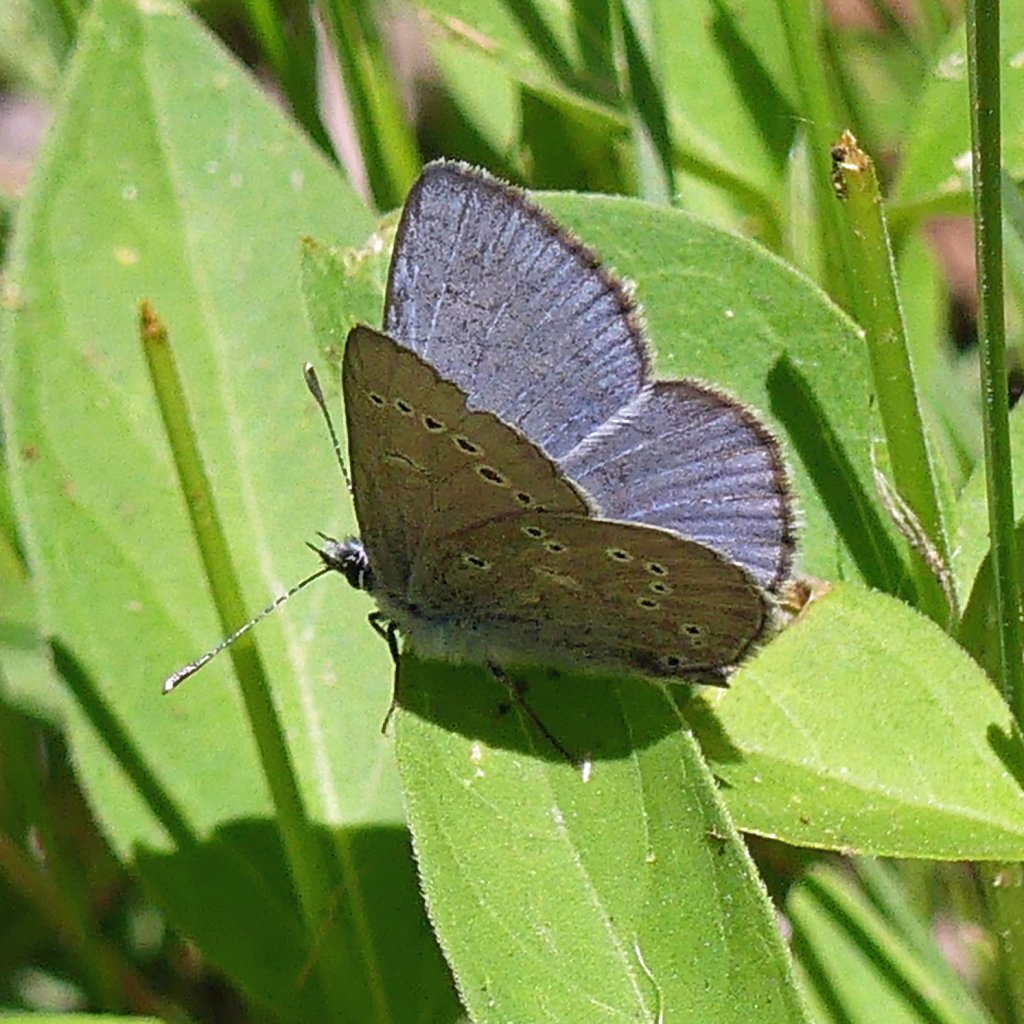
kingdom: Animalia
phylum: Arthropoda
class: Insecta
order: Lepidoptera
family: Lycaenidae
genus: Glaucopsyche
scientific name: Glaucopsyche lygdamus
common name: Silvery Blue
